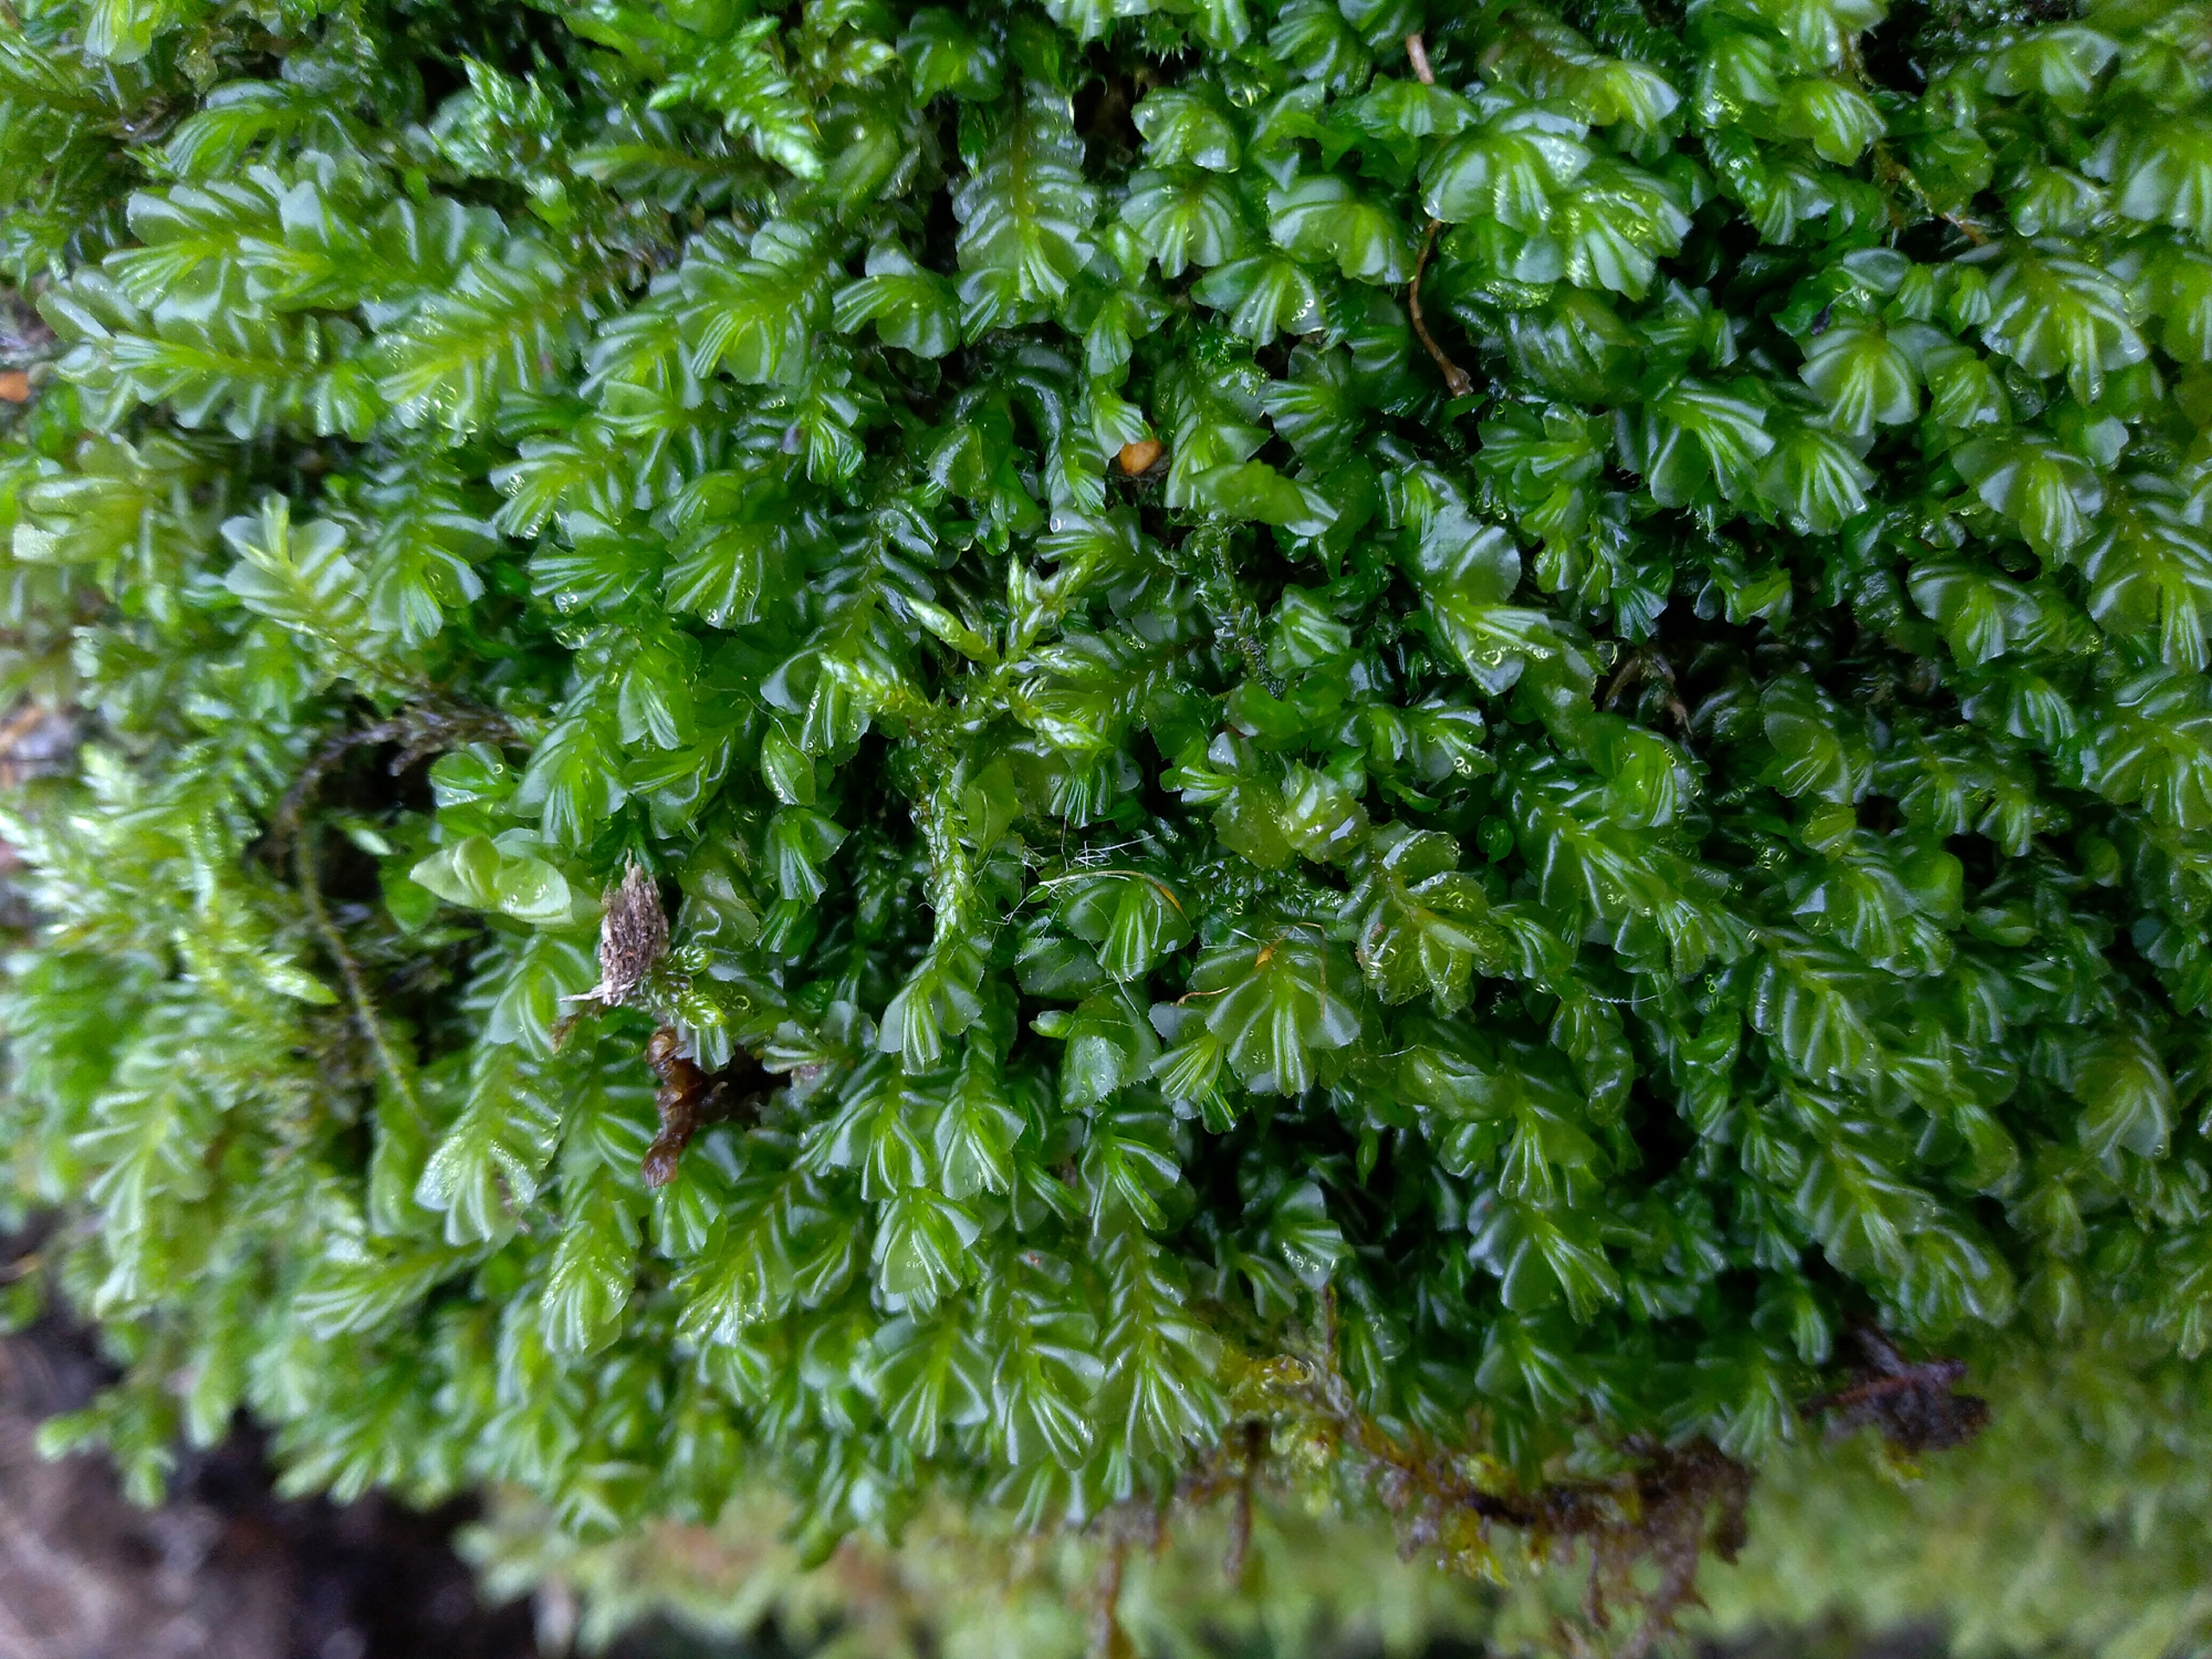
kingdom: Plantae
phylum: Marchantiophyta
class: Jungermanniopsida
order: Jungermanniales
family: Plagiochilaceae
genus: Plagiochila
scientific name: Plagiochila asplenioides
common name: Radeløv-hindeblad (underart)
